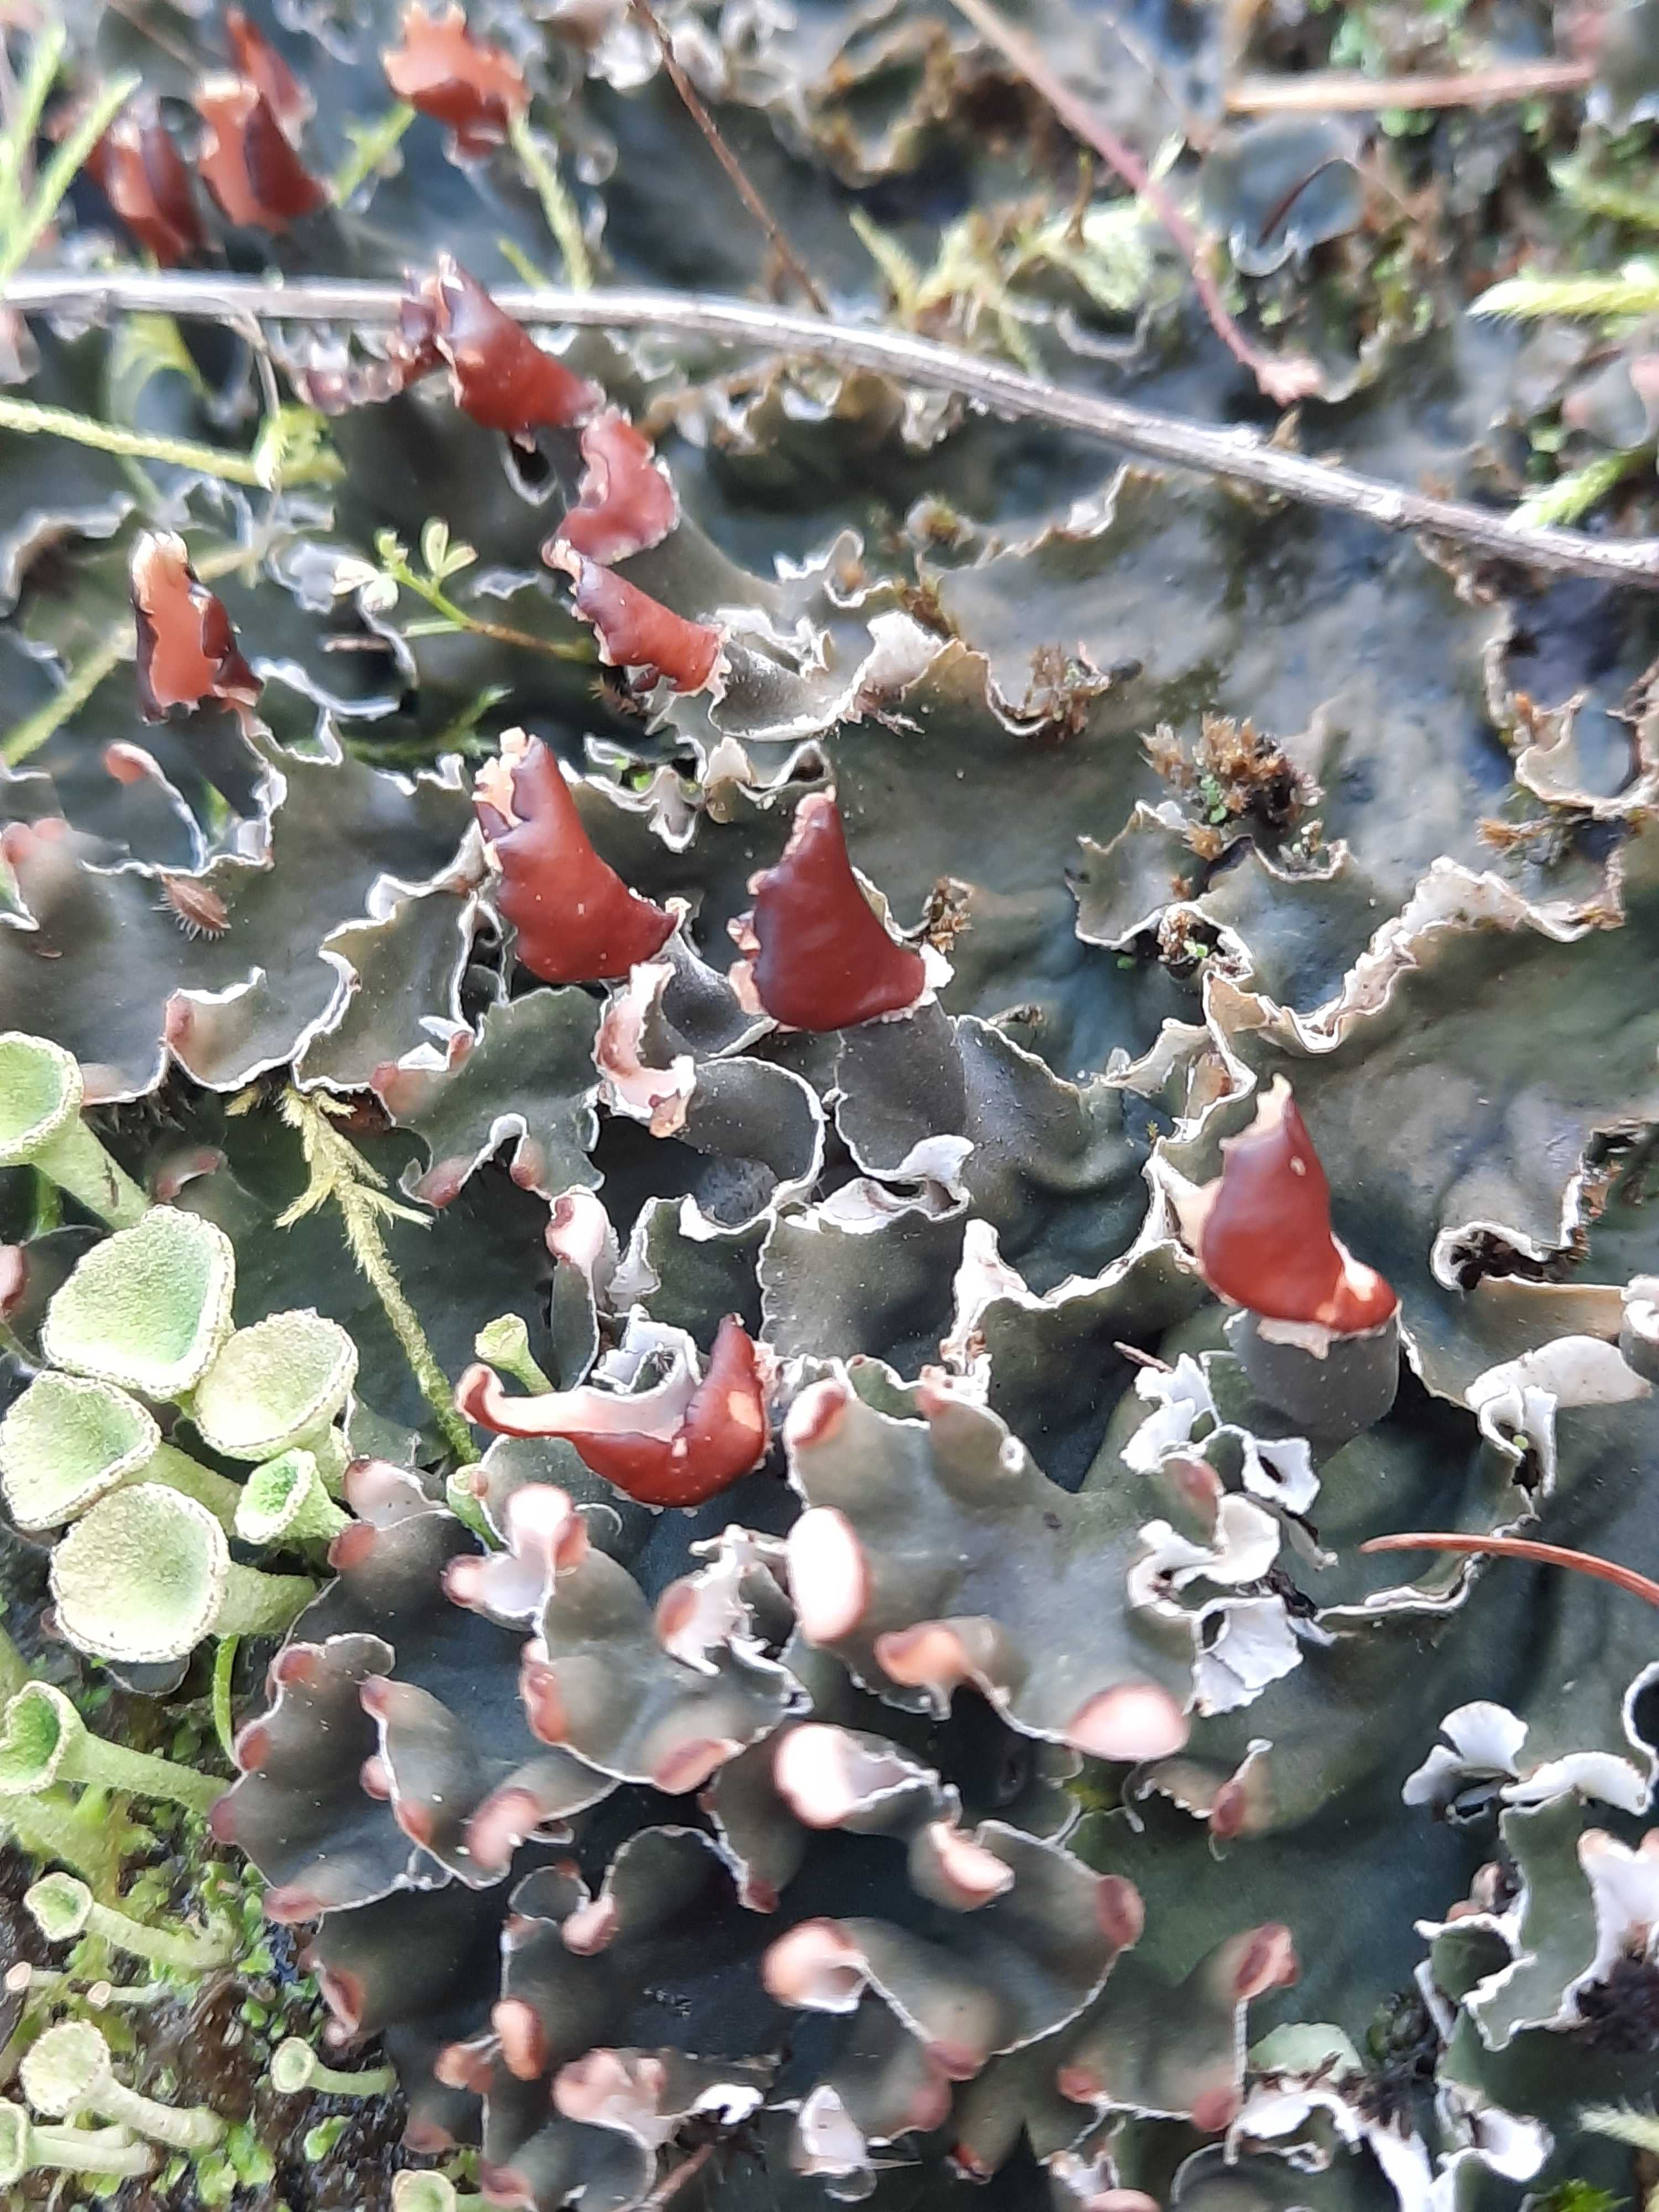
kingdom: Fungi
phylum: Ascomycota
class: Lecanoromycetes
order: Peltigerales
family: Peltigeraceae
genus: Peltigera
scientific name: Peltigera didactyla
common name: liden skjoldlav
